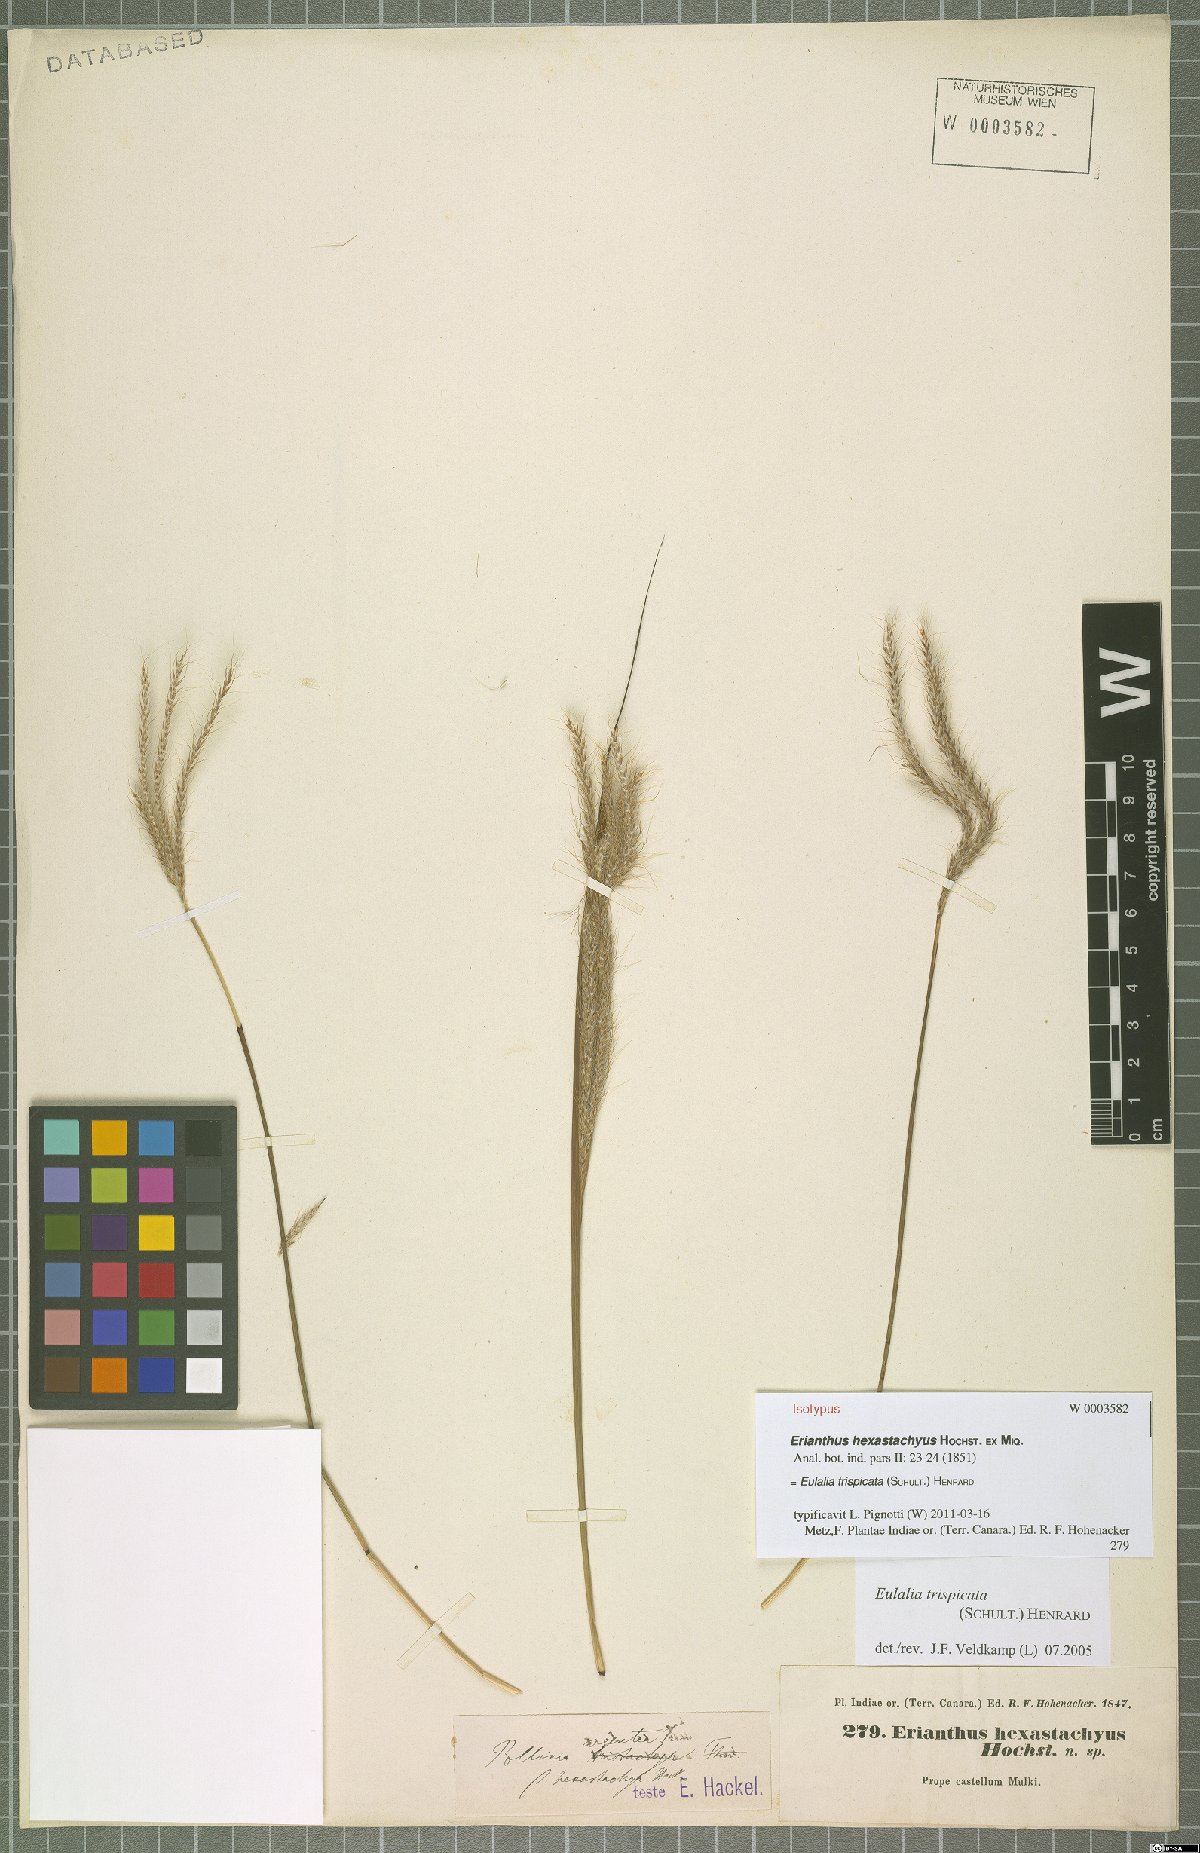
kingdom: Plantae
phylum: Tracheophyta
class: Liliopsida
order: Poales
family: Poaceae
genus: Pseudopogonatherum
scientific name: Pseudopogonatherum trispicatum
